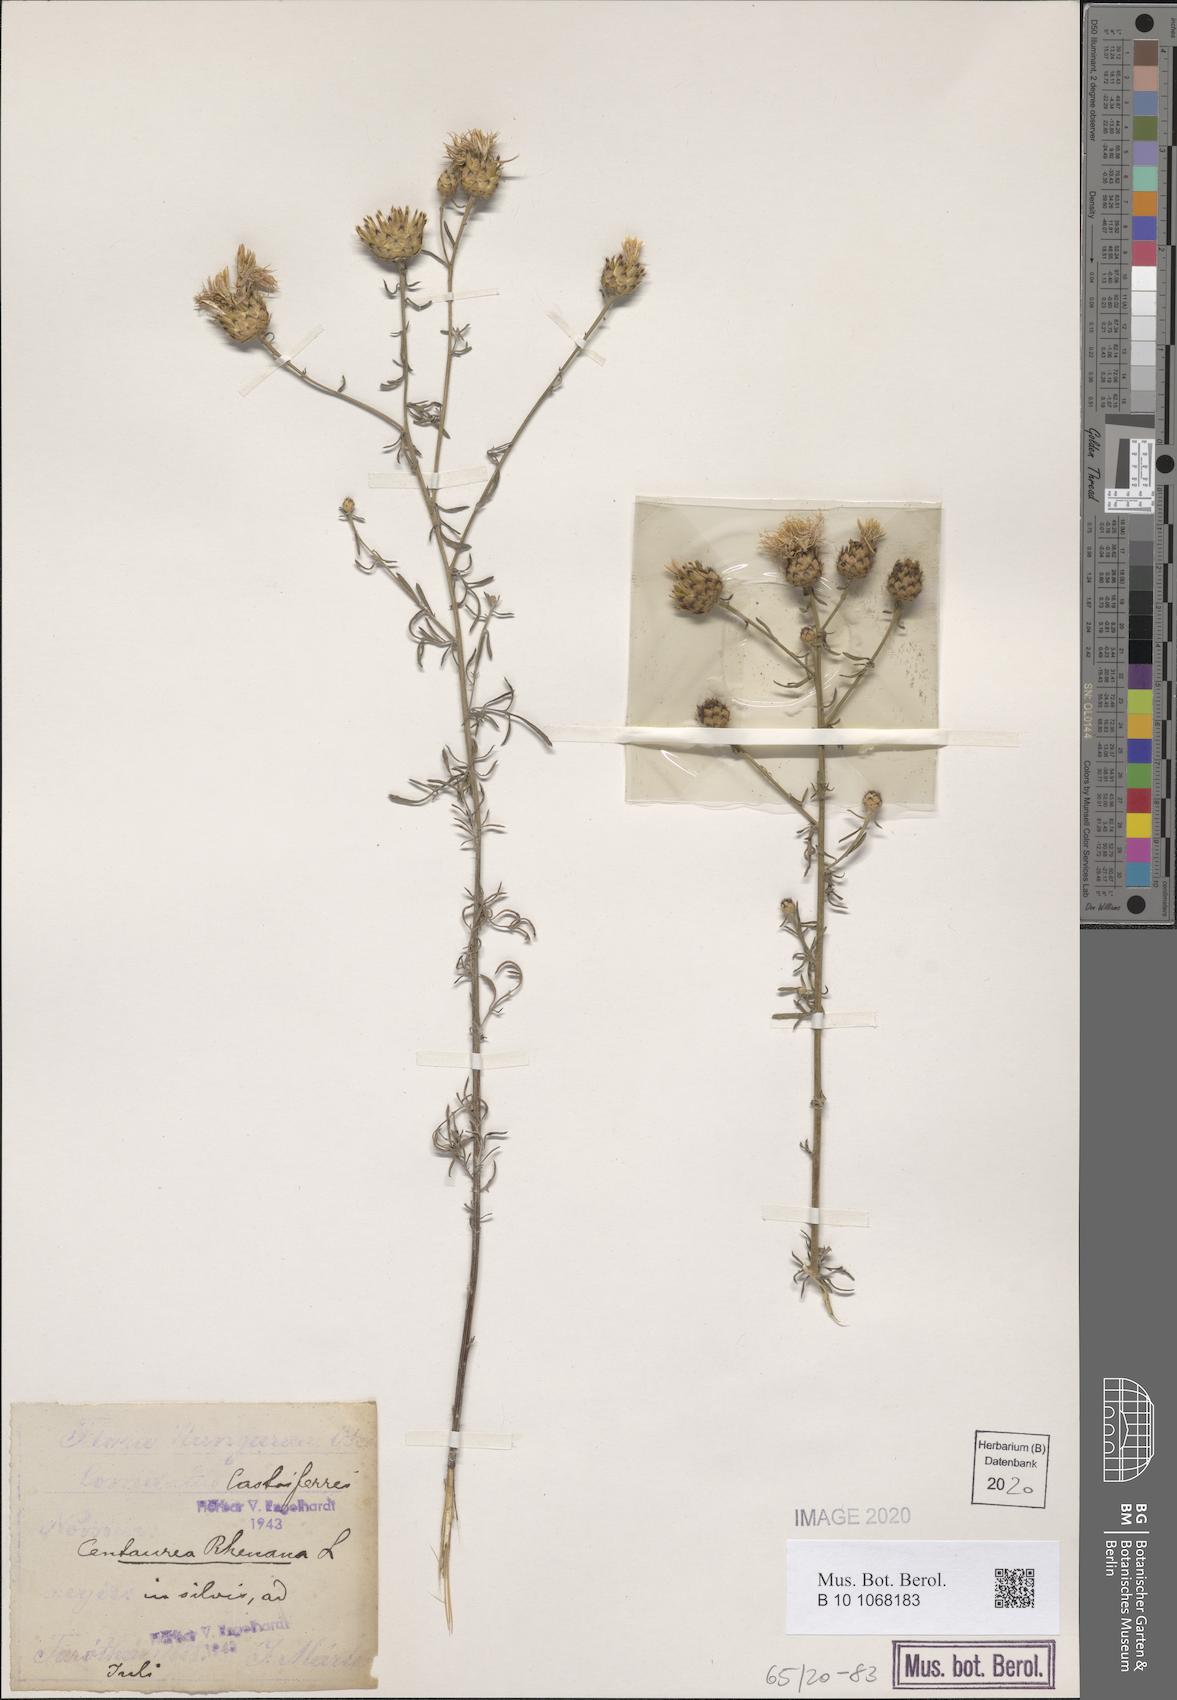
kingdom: Plantae
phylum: Tracheophyta
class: Magnoliopsida
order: Asterales
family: Asteraceae
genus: Centaurea
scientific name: Centaurea stoebe
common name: Spotted knapweed
